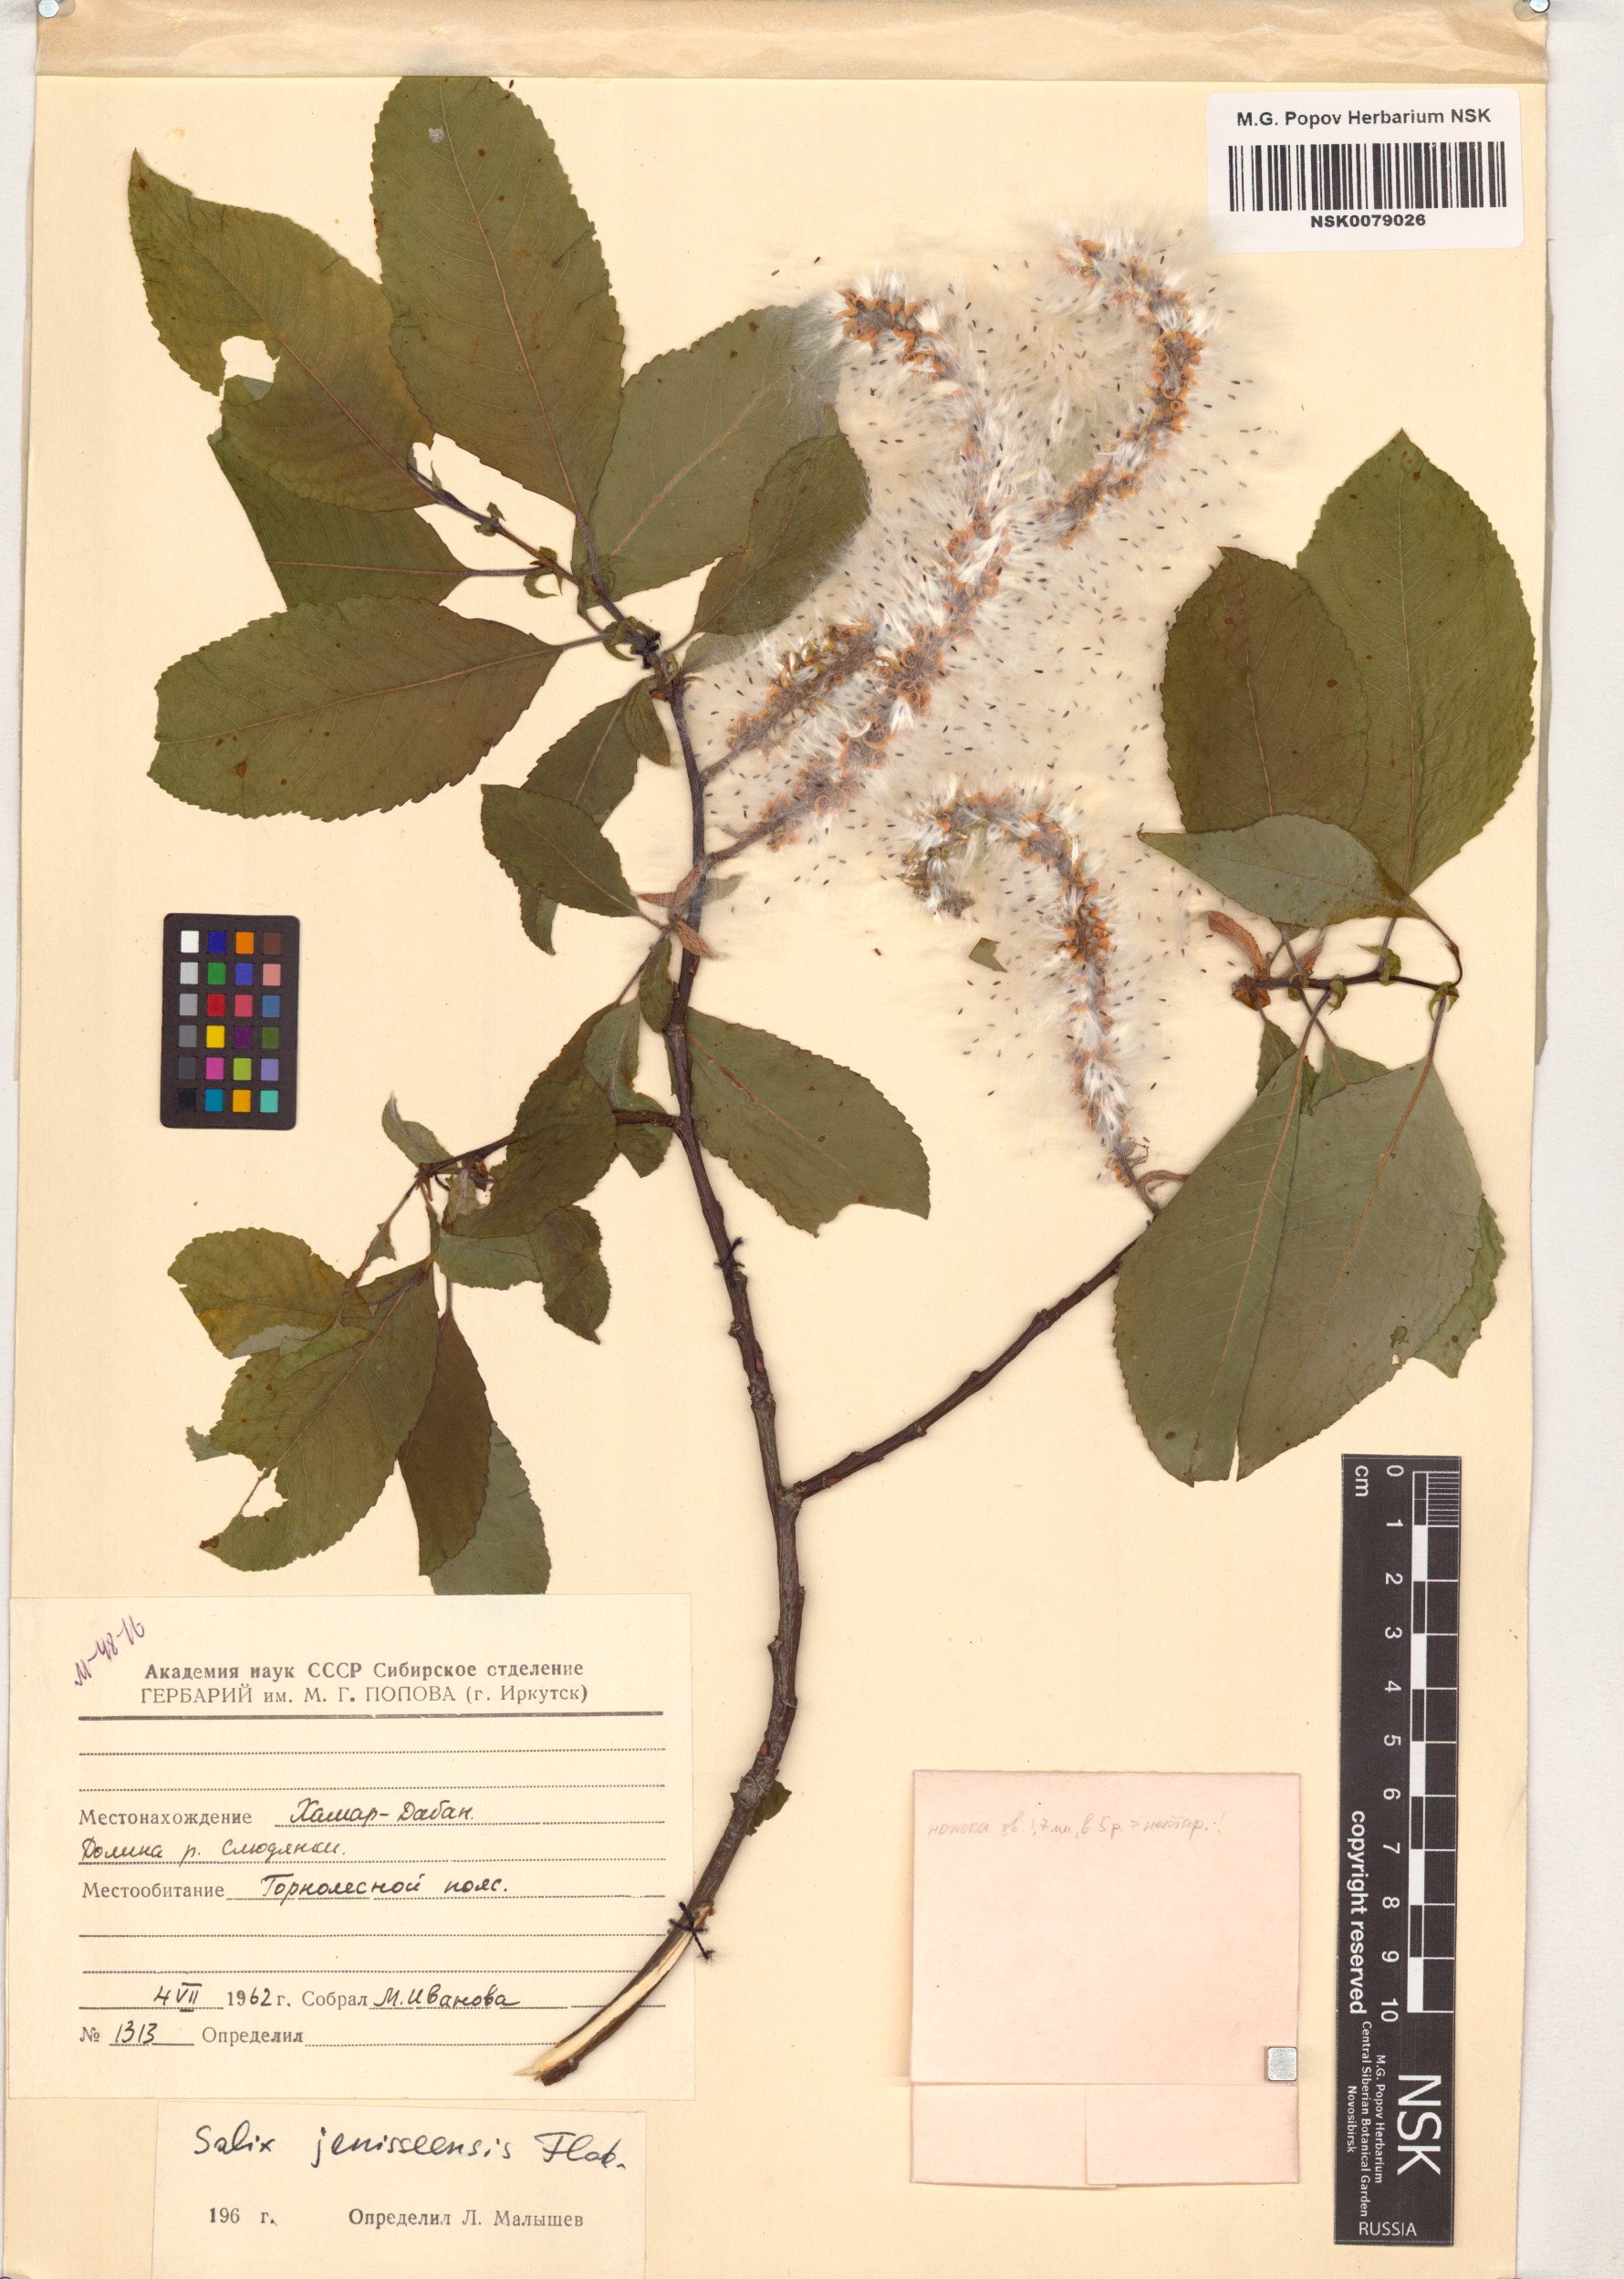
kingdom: Plantae
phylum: Tracheophyta
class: Magnoliopsida
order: Malpighiales
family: Salicaceae
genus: Salix
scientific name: Salix jenisseensis
